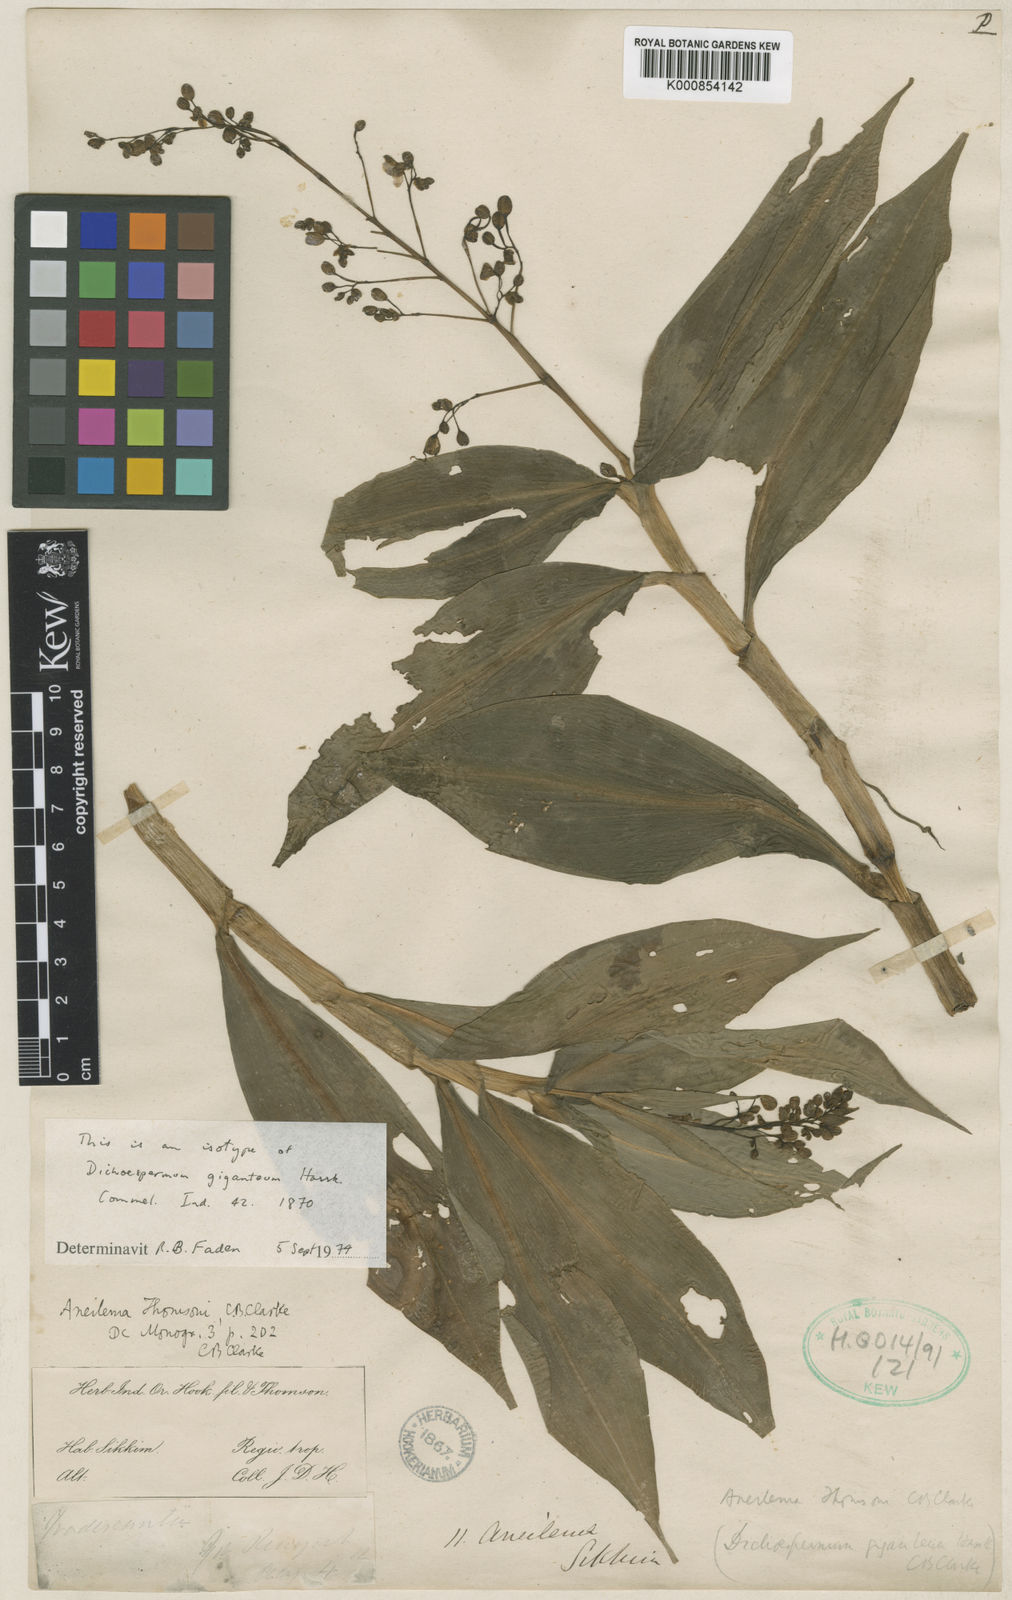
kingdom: Plantae
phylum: Tracheophyta
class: Liliopsida
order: Commelinales
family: Commelinaceae
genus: Tricarpelema
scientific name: Tricarpelema giganteum
